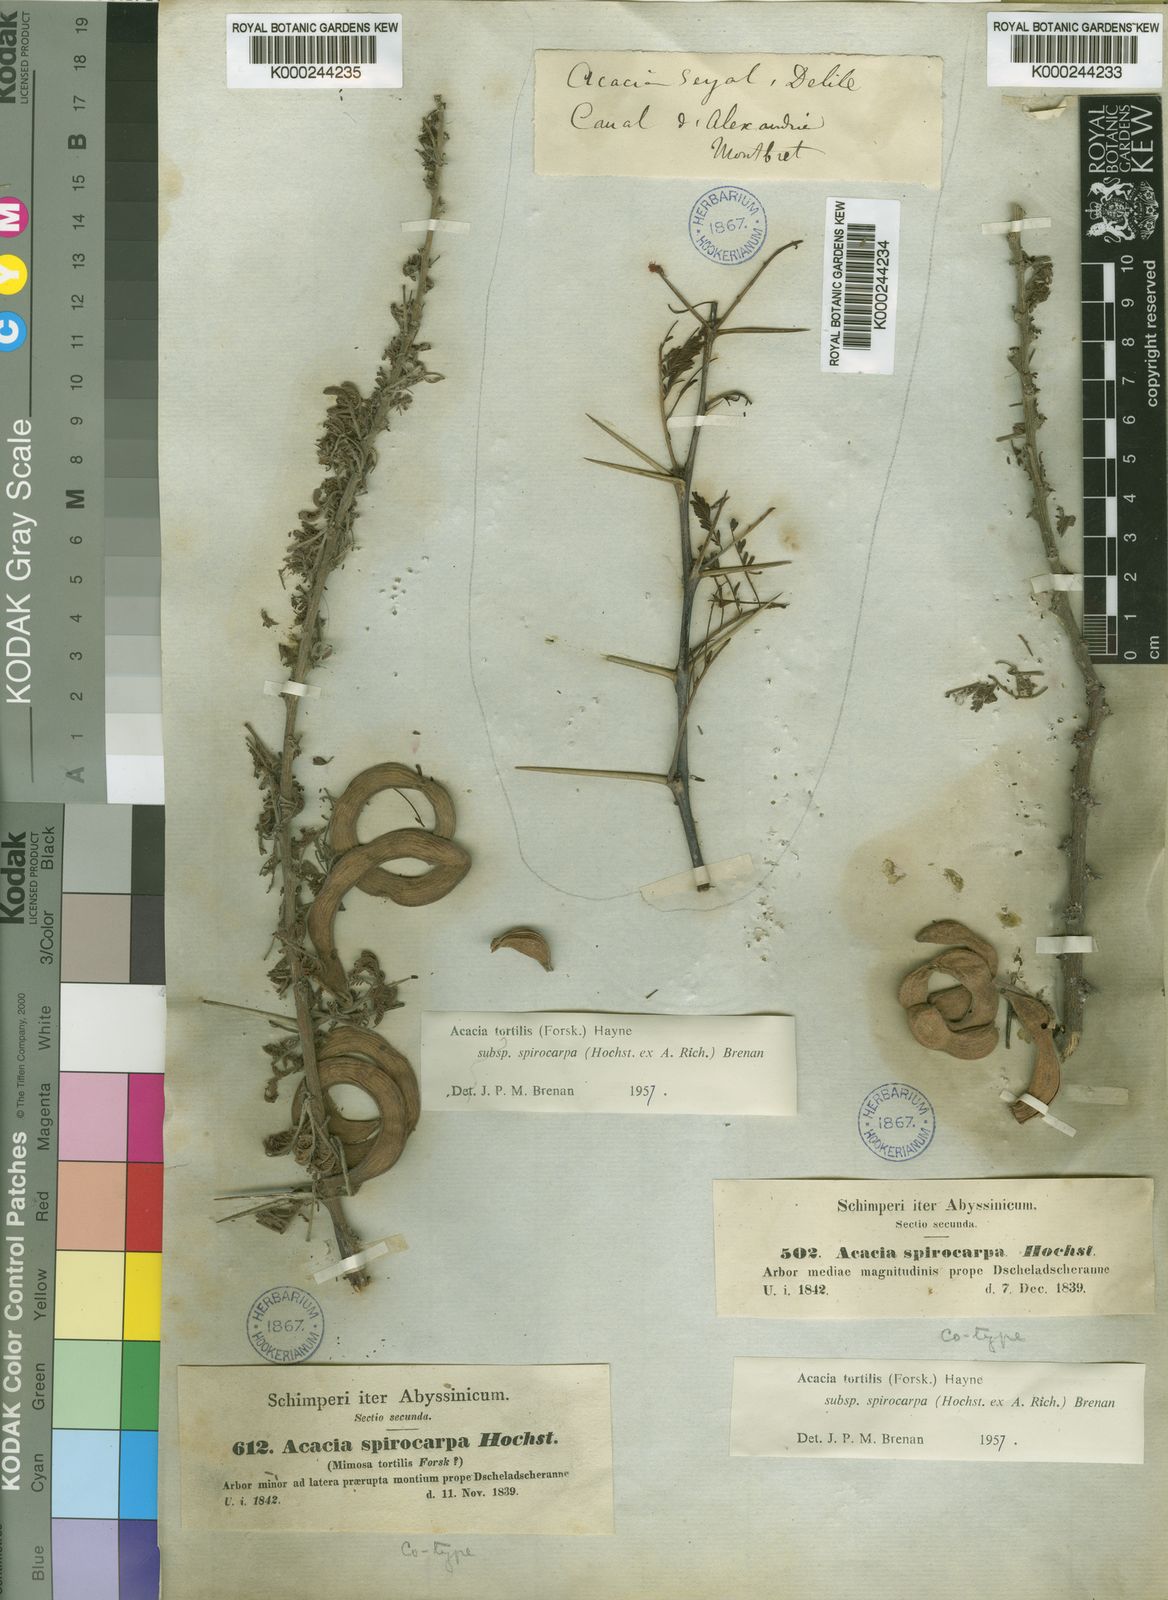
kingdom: Plantae
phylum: Tracheophyta
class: Magnoliopsida
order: Fabales
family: Fabaceae
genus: Vachellia
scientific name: Vachellia tortilis
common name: Umbrella thorn acacia
